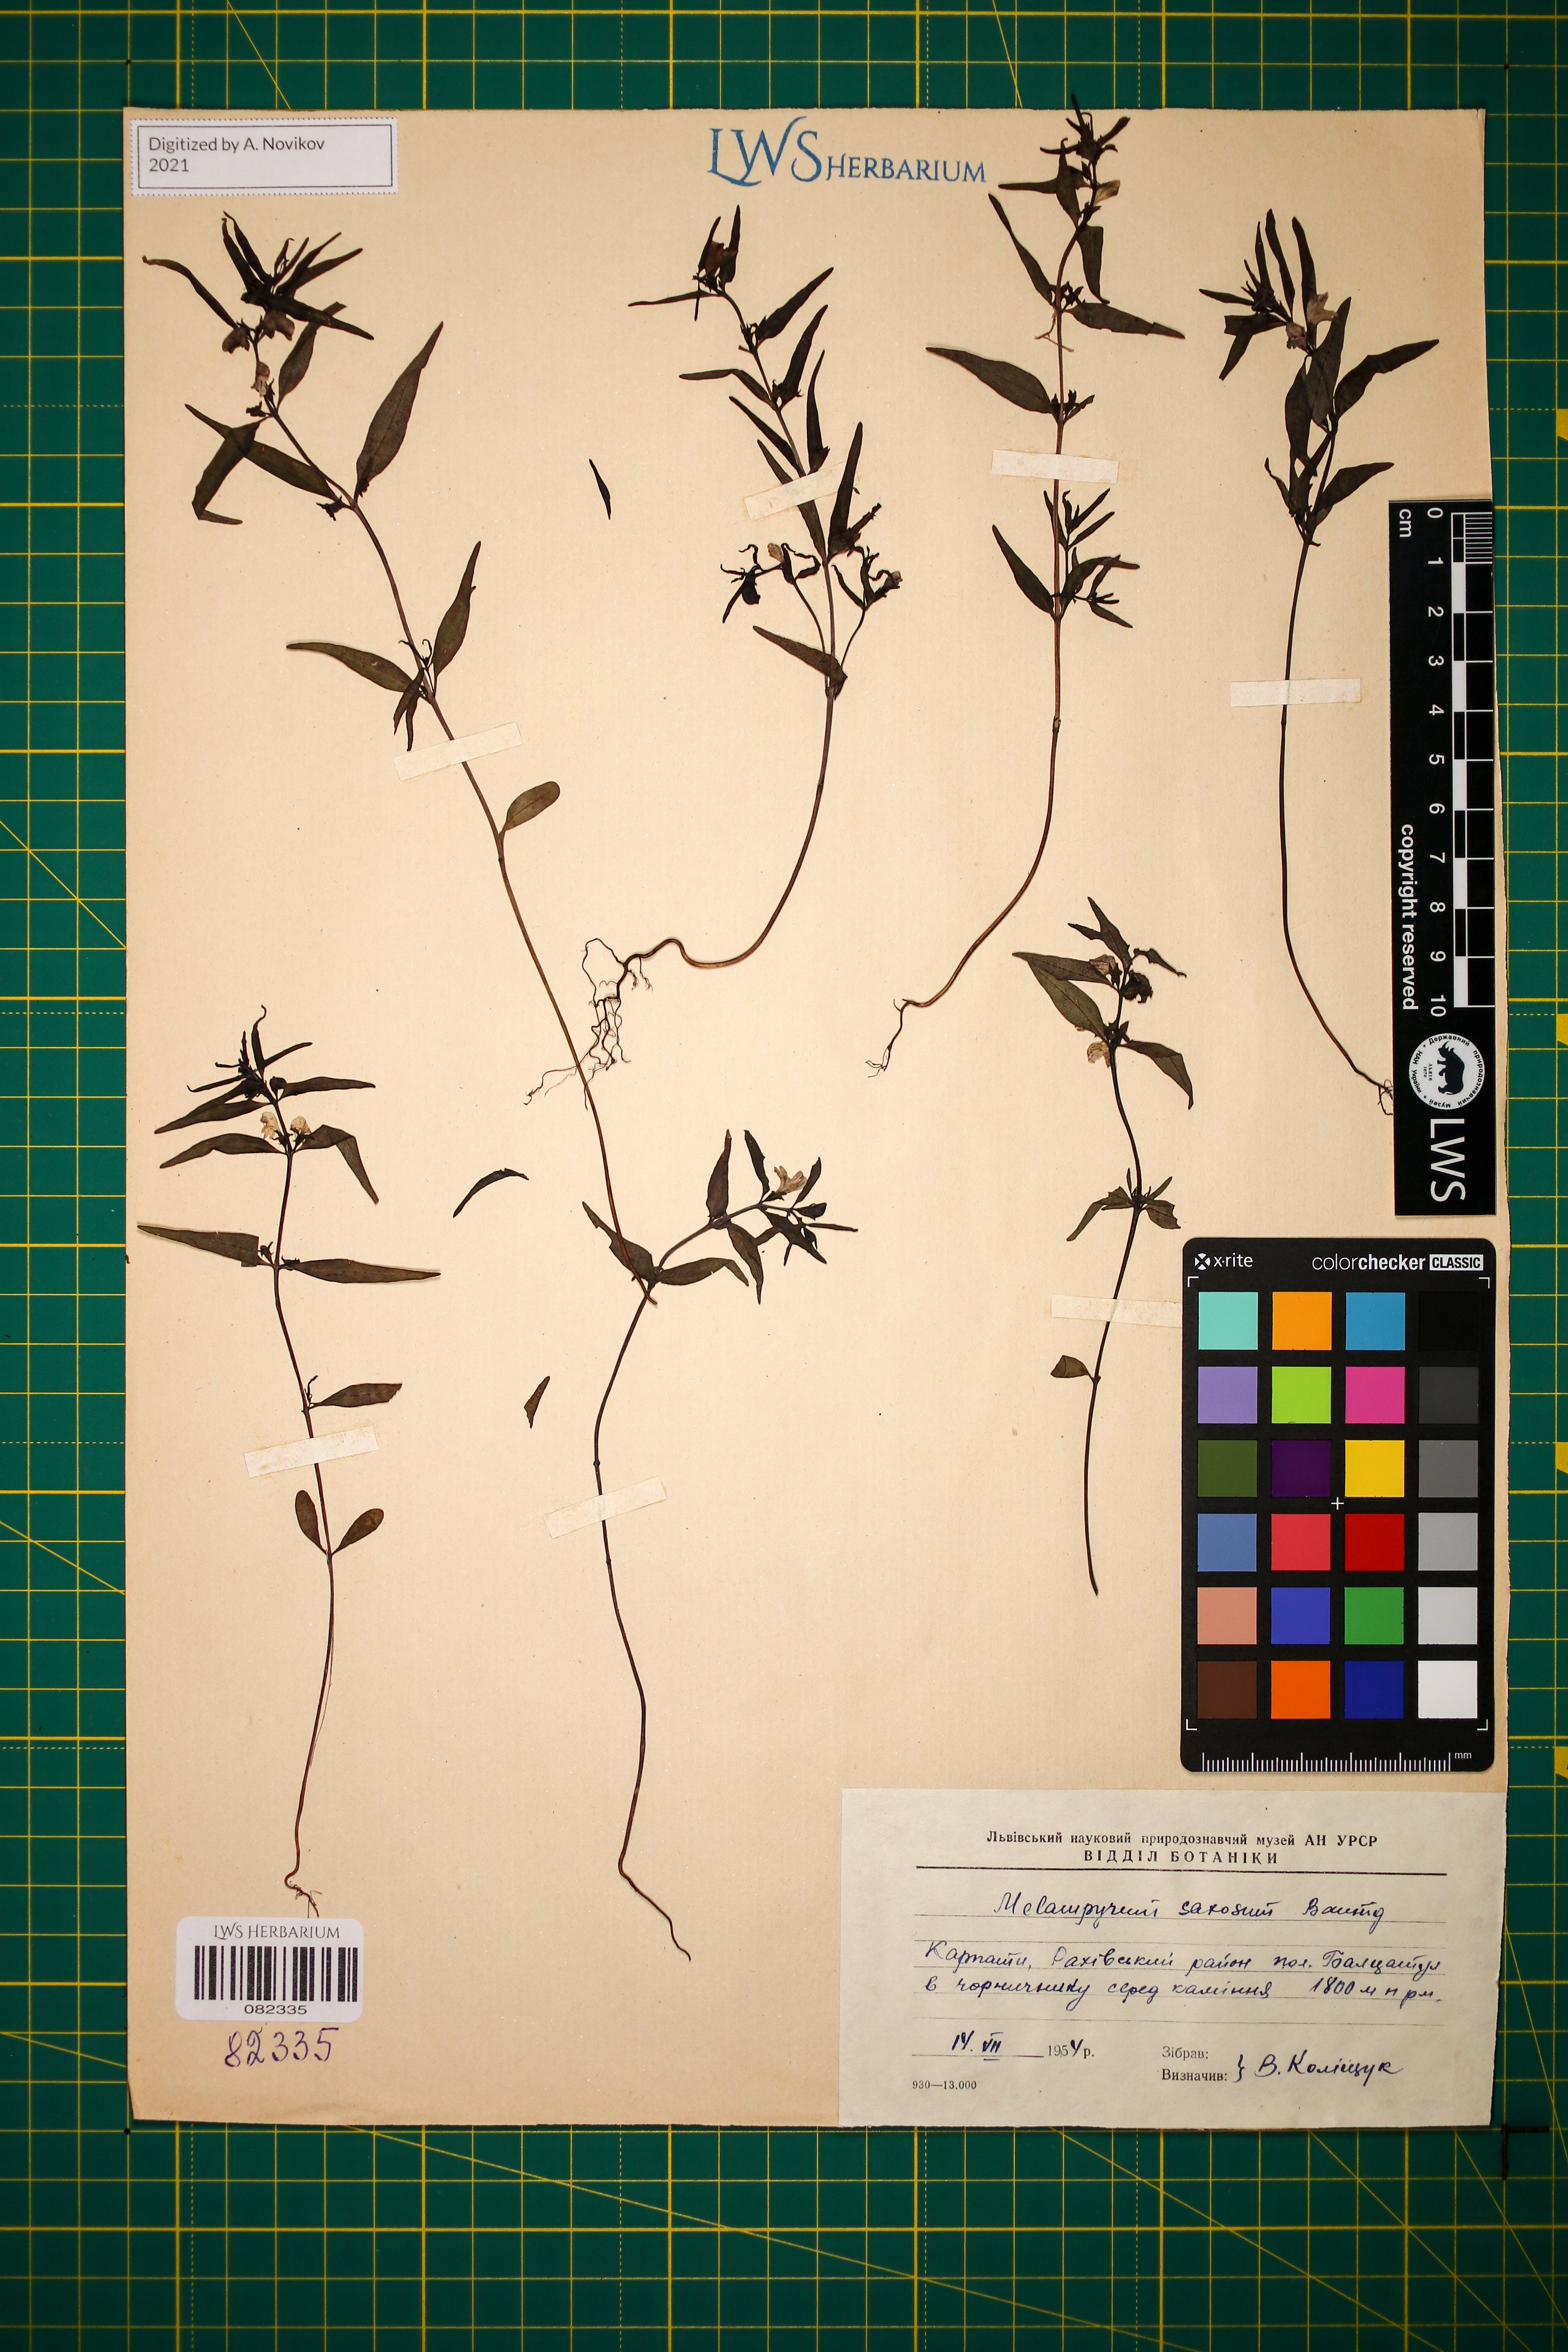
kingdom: Plantae
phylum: Tracheophyta
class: Magnoliopsida
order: Lamiales
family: Orobanchaceae
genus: Melampyrum
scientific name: Melampyrum saxosum
